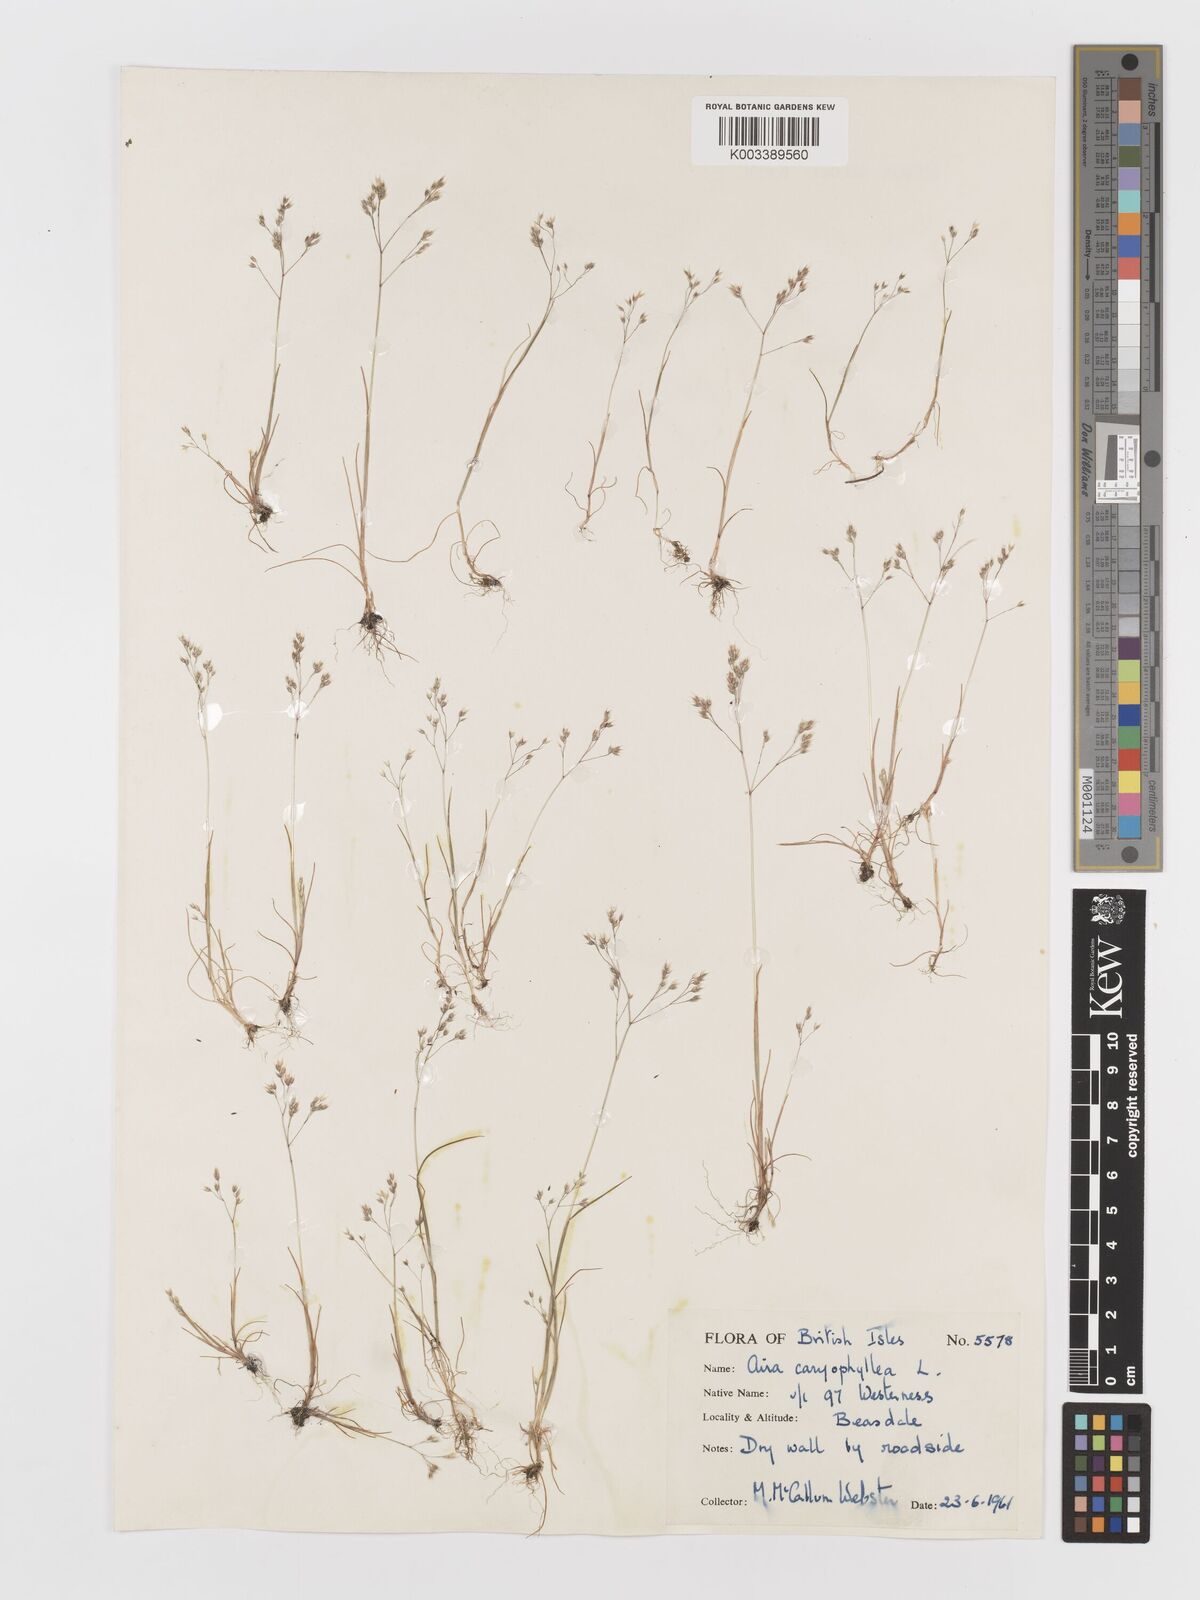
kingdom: Plantae
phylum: Tracheophyta
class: Liliopsida
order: Poales
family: Poaceae
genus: Aira
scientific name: Aira caryophyllea
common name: Silver hairgrass
